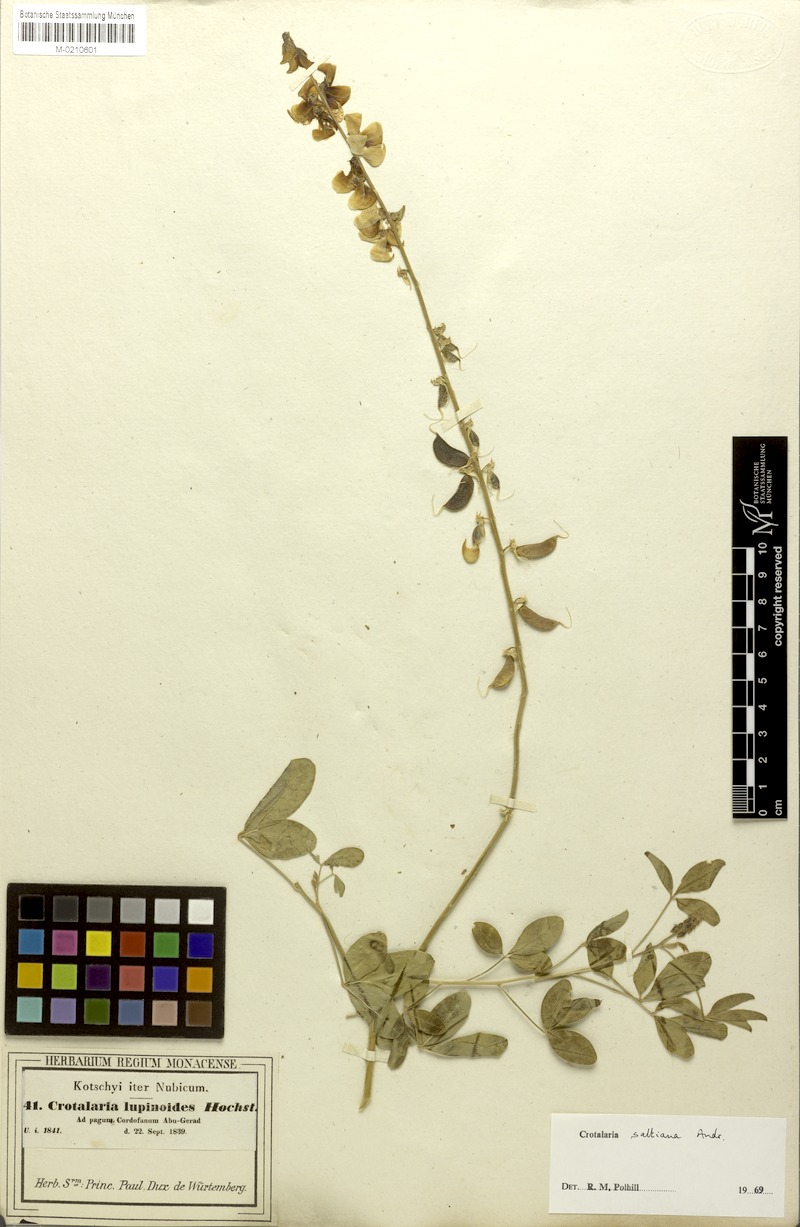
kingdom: Plantae
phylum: Tracheophyta
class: Magnoliopsida
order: Fabales
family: Fabaceae
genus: Crotalaria
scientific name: Crotalaria saltiana
